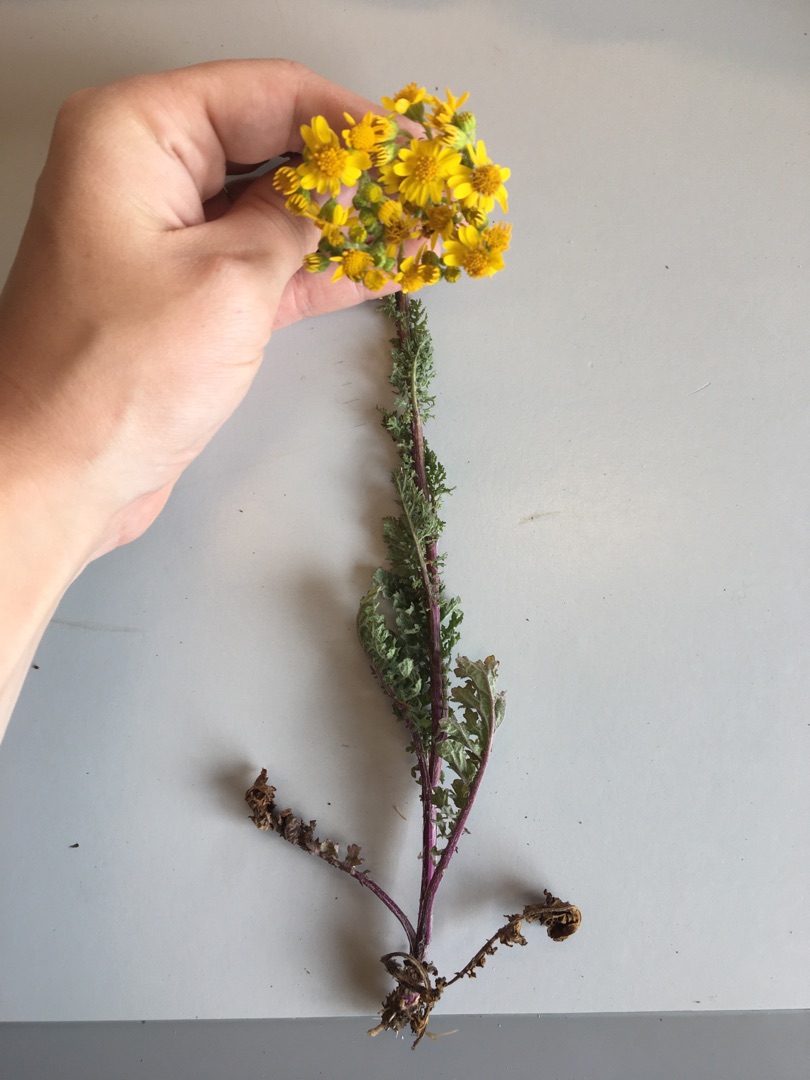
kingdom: Plantae
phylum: Tracheophyta
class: Magnoliopsida
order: Asterales
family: Asteraceae
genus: Jacobaea
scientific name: Jacobaea vulgaris
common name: Eng-brandbæger
